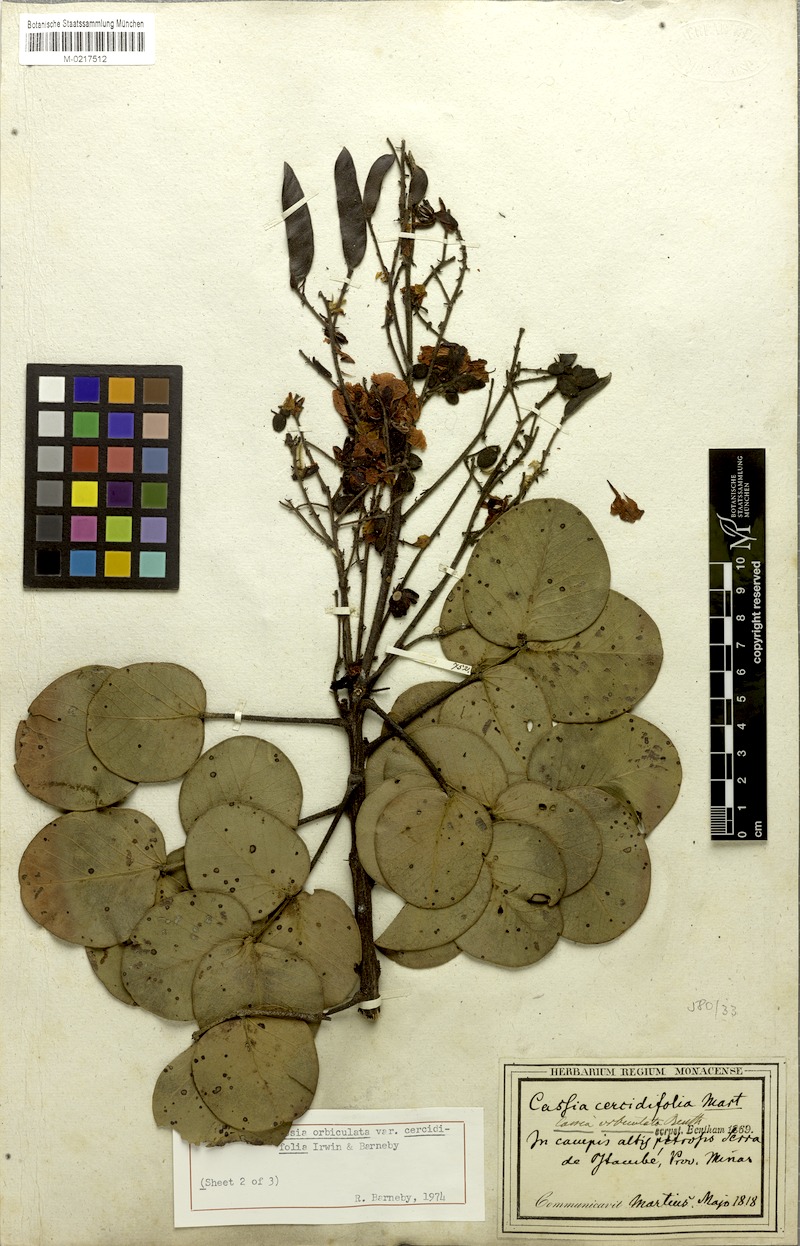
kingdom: Plantae
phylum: Tracheophyta
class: Magnoliopsida
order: Fabales
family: Fabaceae
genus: Chamaecrista
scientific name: Chamaecrista cercidifolia
